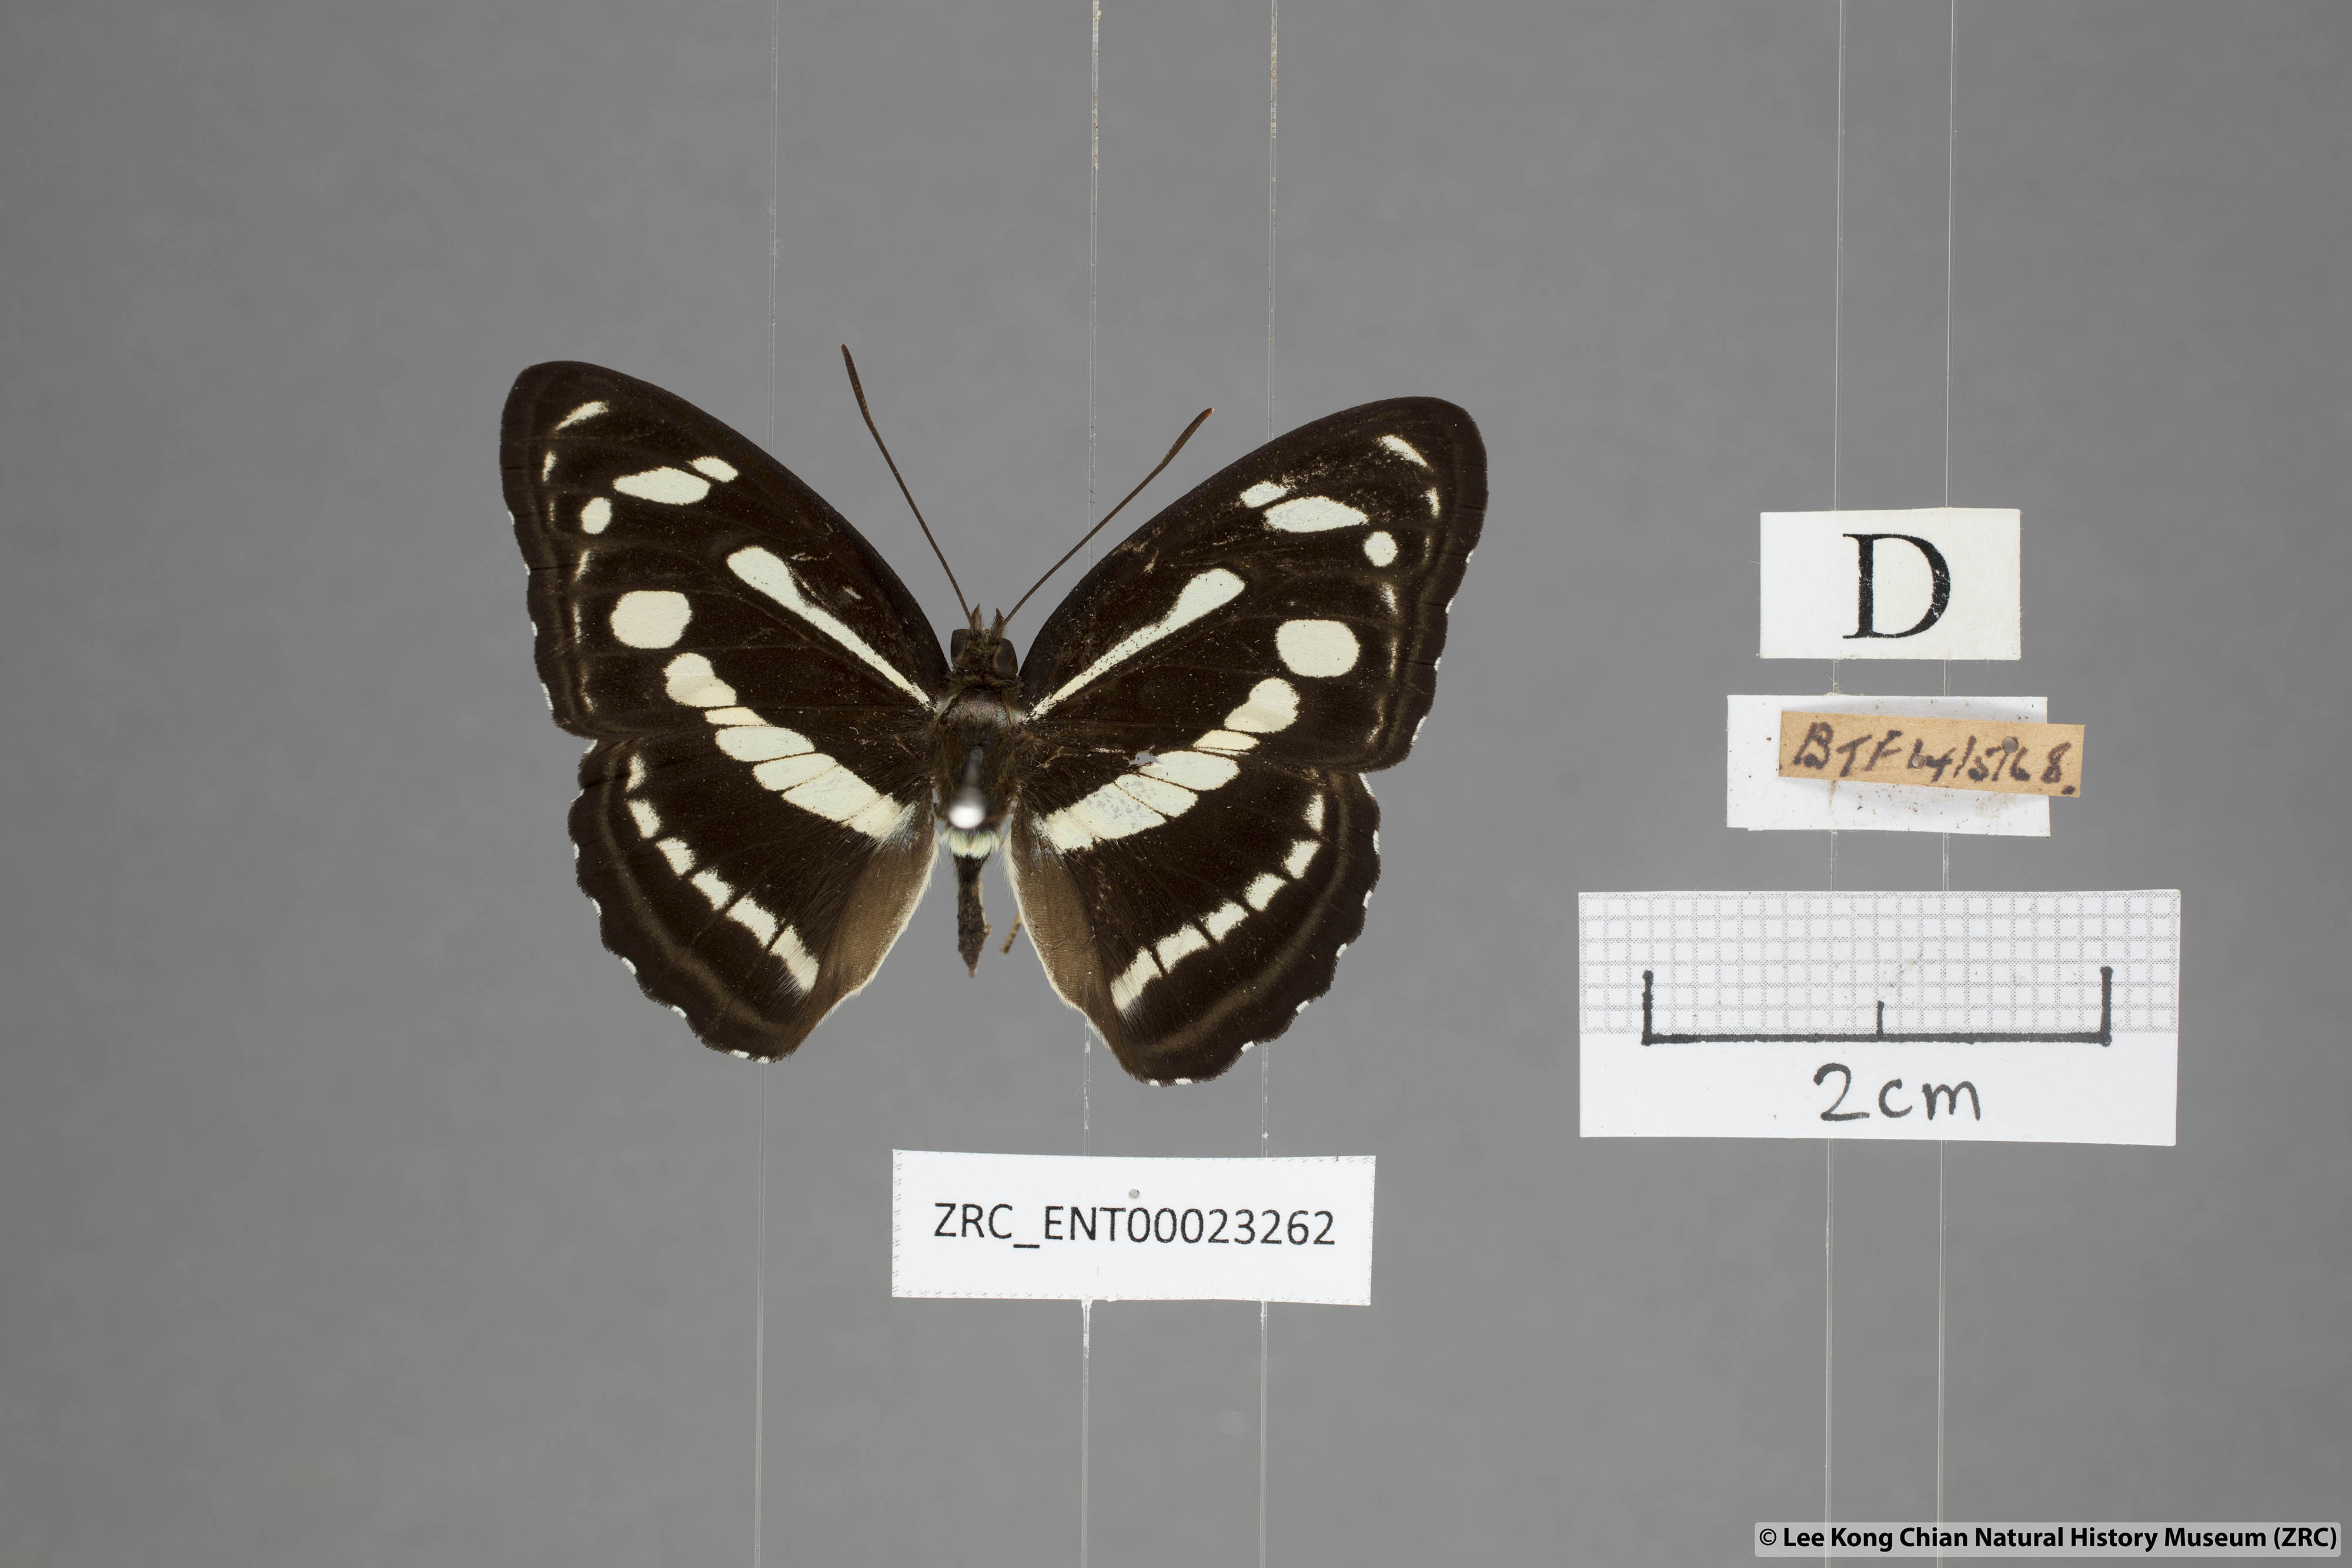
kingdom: Animalia
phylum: Arthropoda
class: Insecta
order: Lepidoptera
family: Nymphalidae
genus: Parathyma
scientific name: Parathyma pravara
